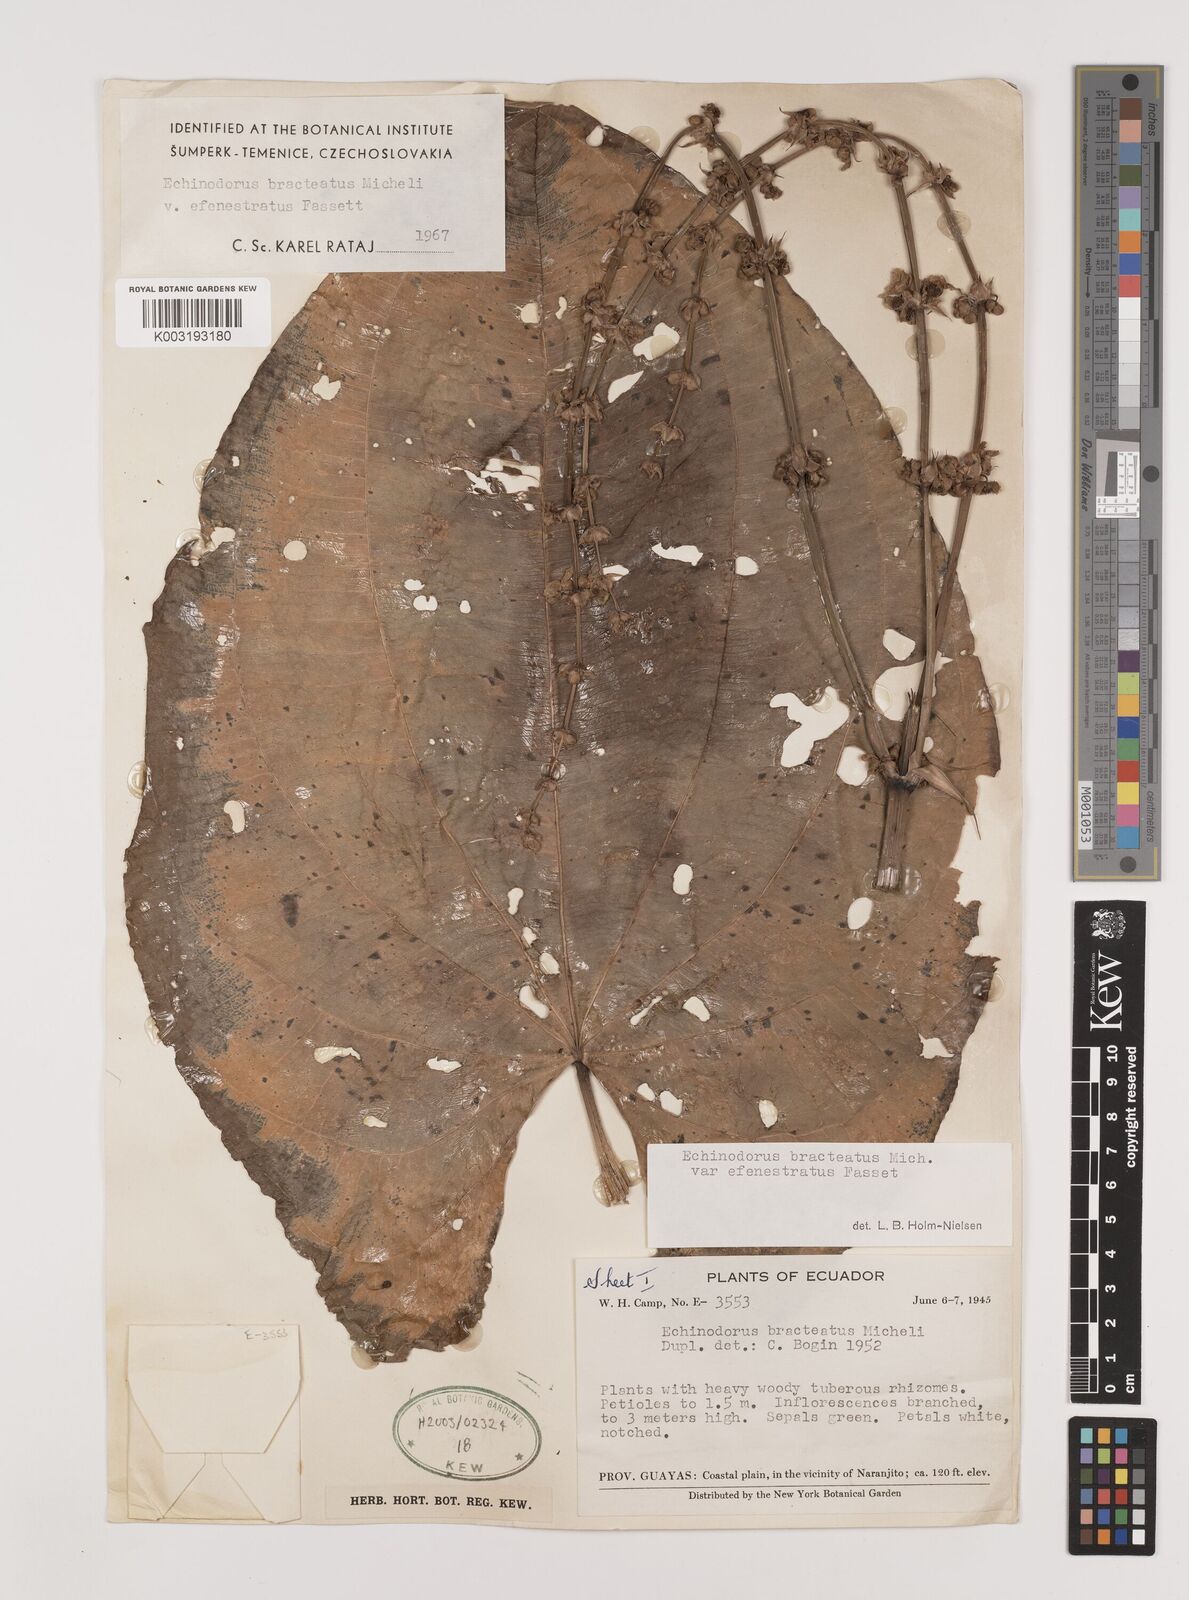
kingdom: Plantae
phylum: Tracheophyta
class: Liliopsida
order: Alismatales
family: Alismataceae
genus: Aquarius
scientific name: Aquarius bracteatus
